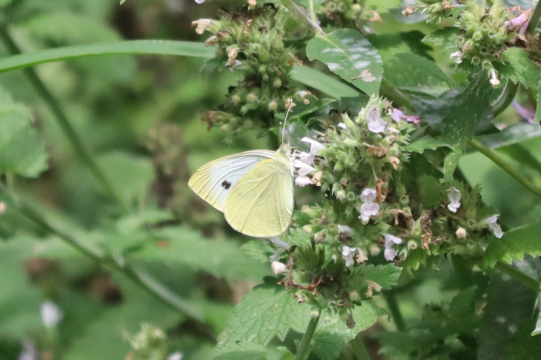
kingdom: Animalia
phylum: Arthropoda
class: Insecta
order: Lepidoptera
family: Pieridae
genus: Pieris
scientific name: Pieris rapae
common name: Cabbage White
